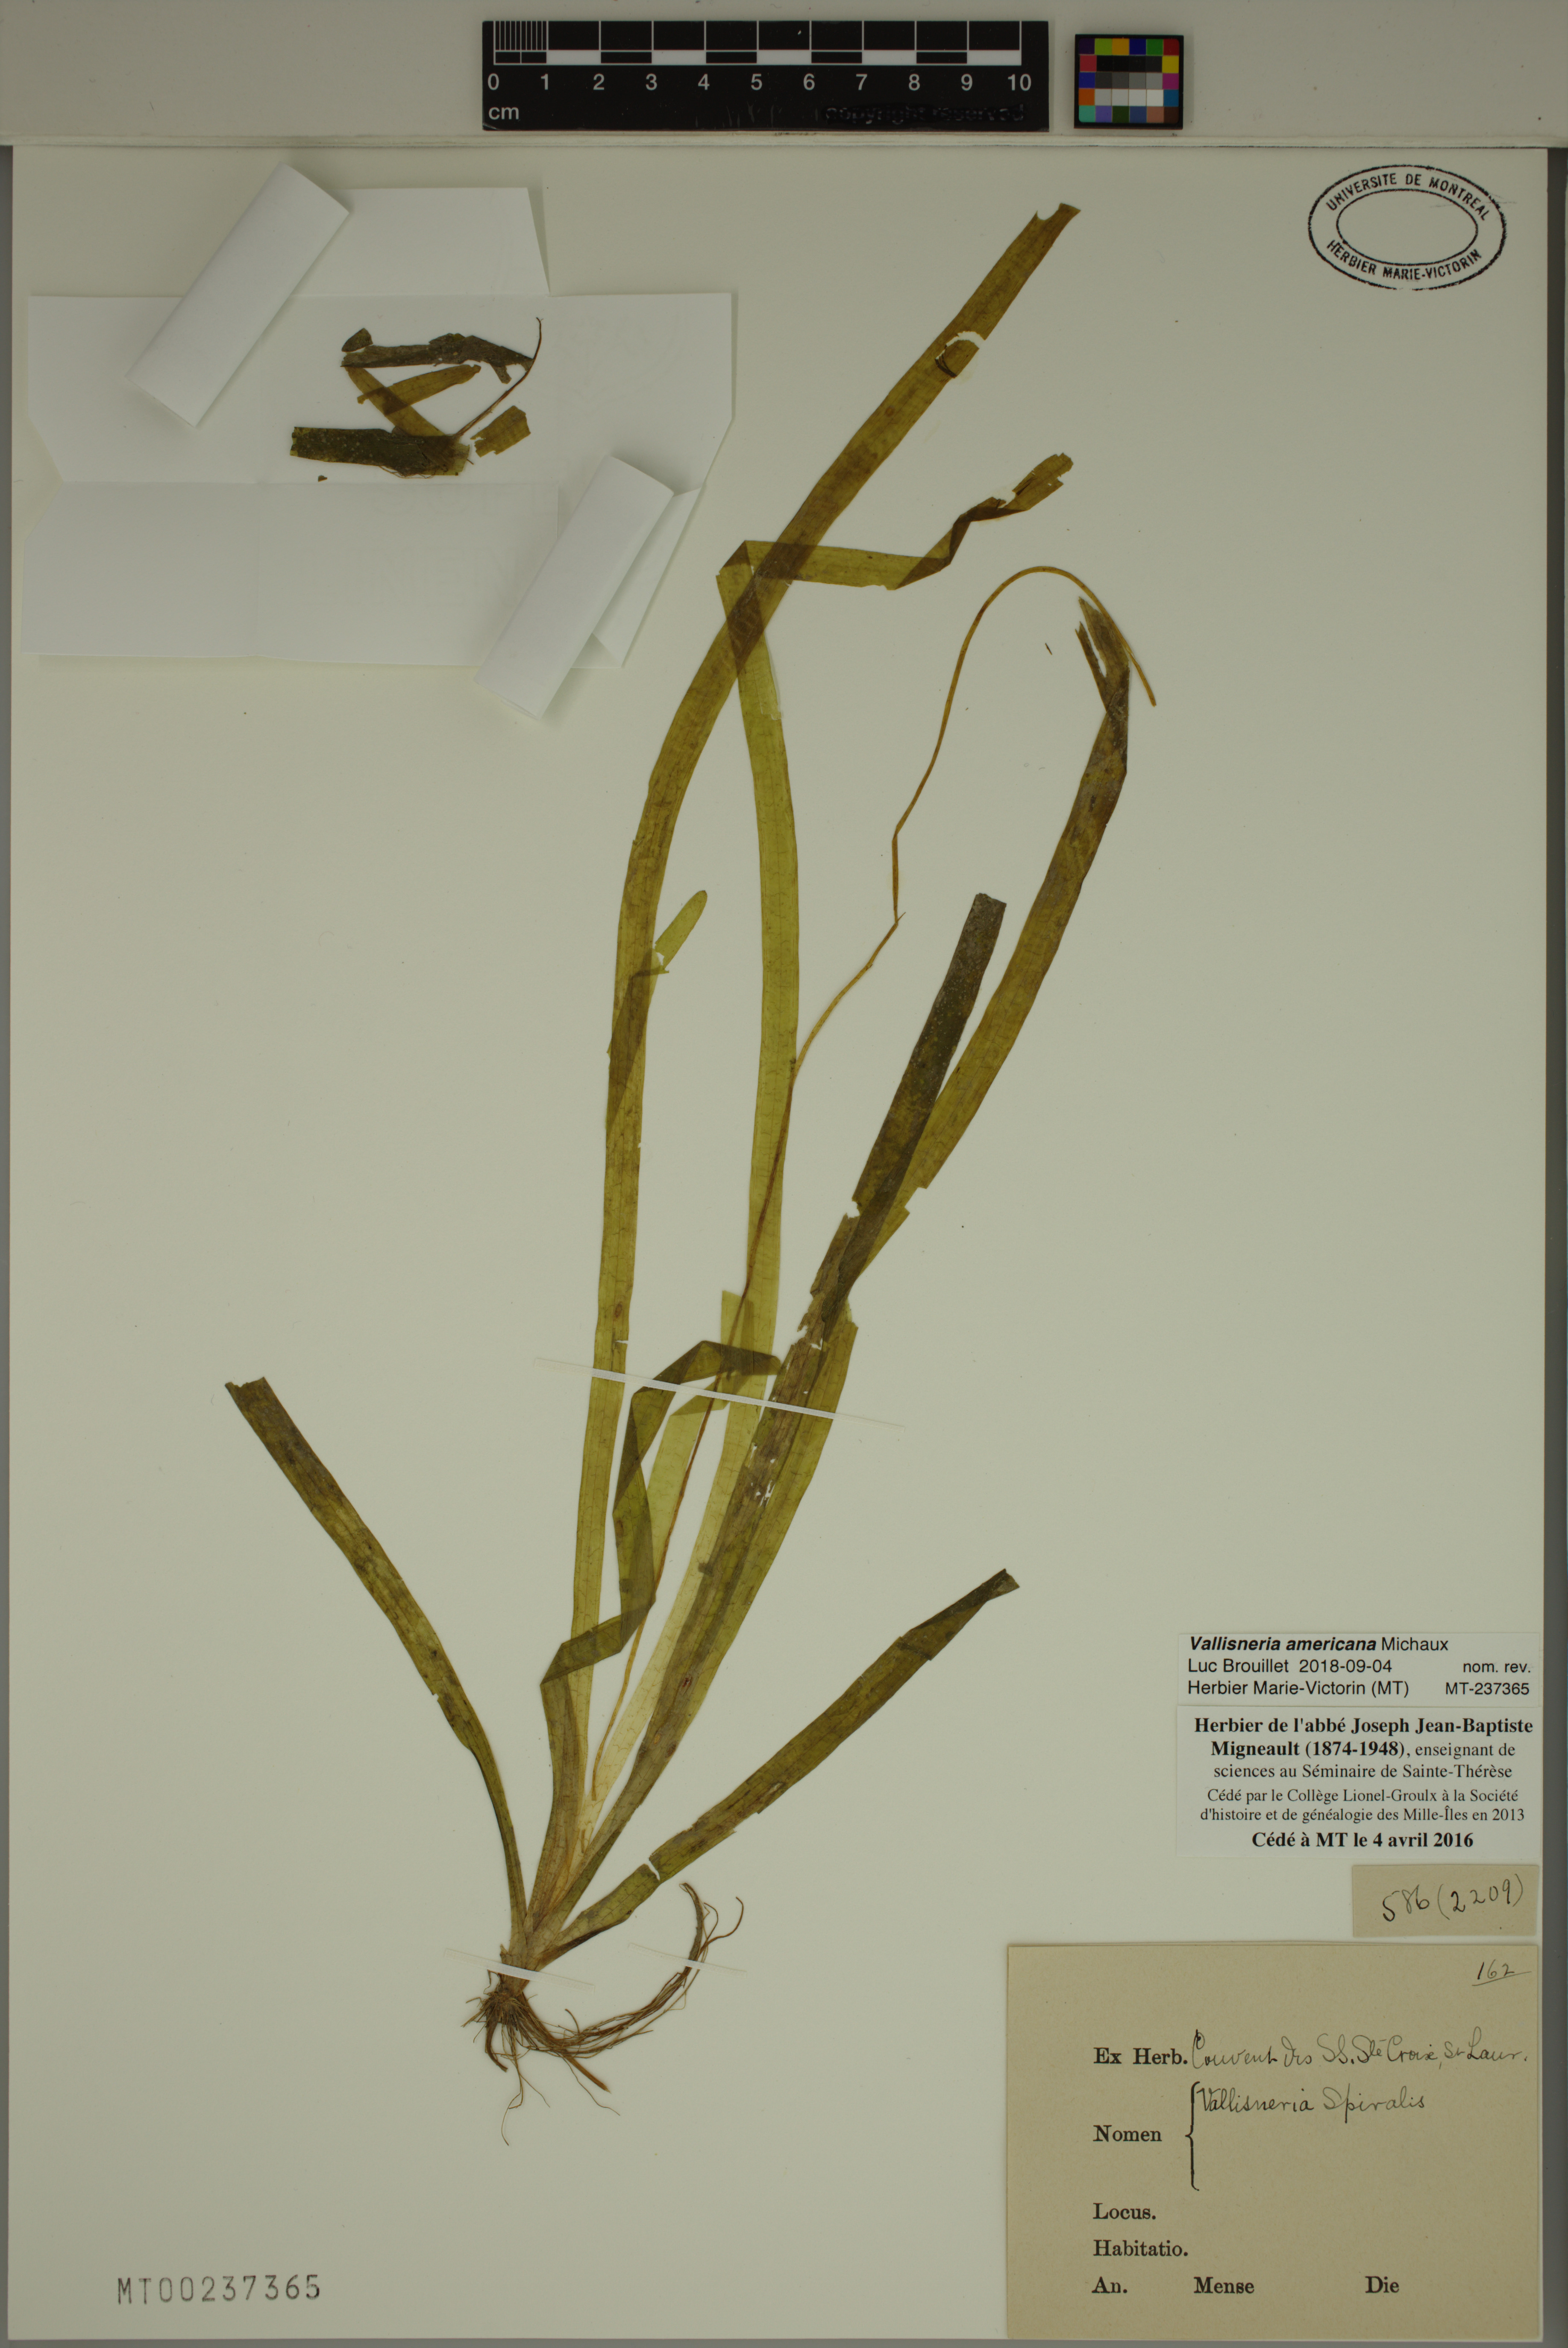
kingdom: Plantae
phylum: Tracheophyta
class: Liliopsida
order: Alismatales
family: Hydrocharitaceae
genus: Vallisneria
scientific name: Vallisneria americana
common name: American eelgrass
